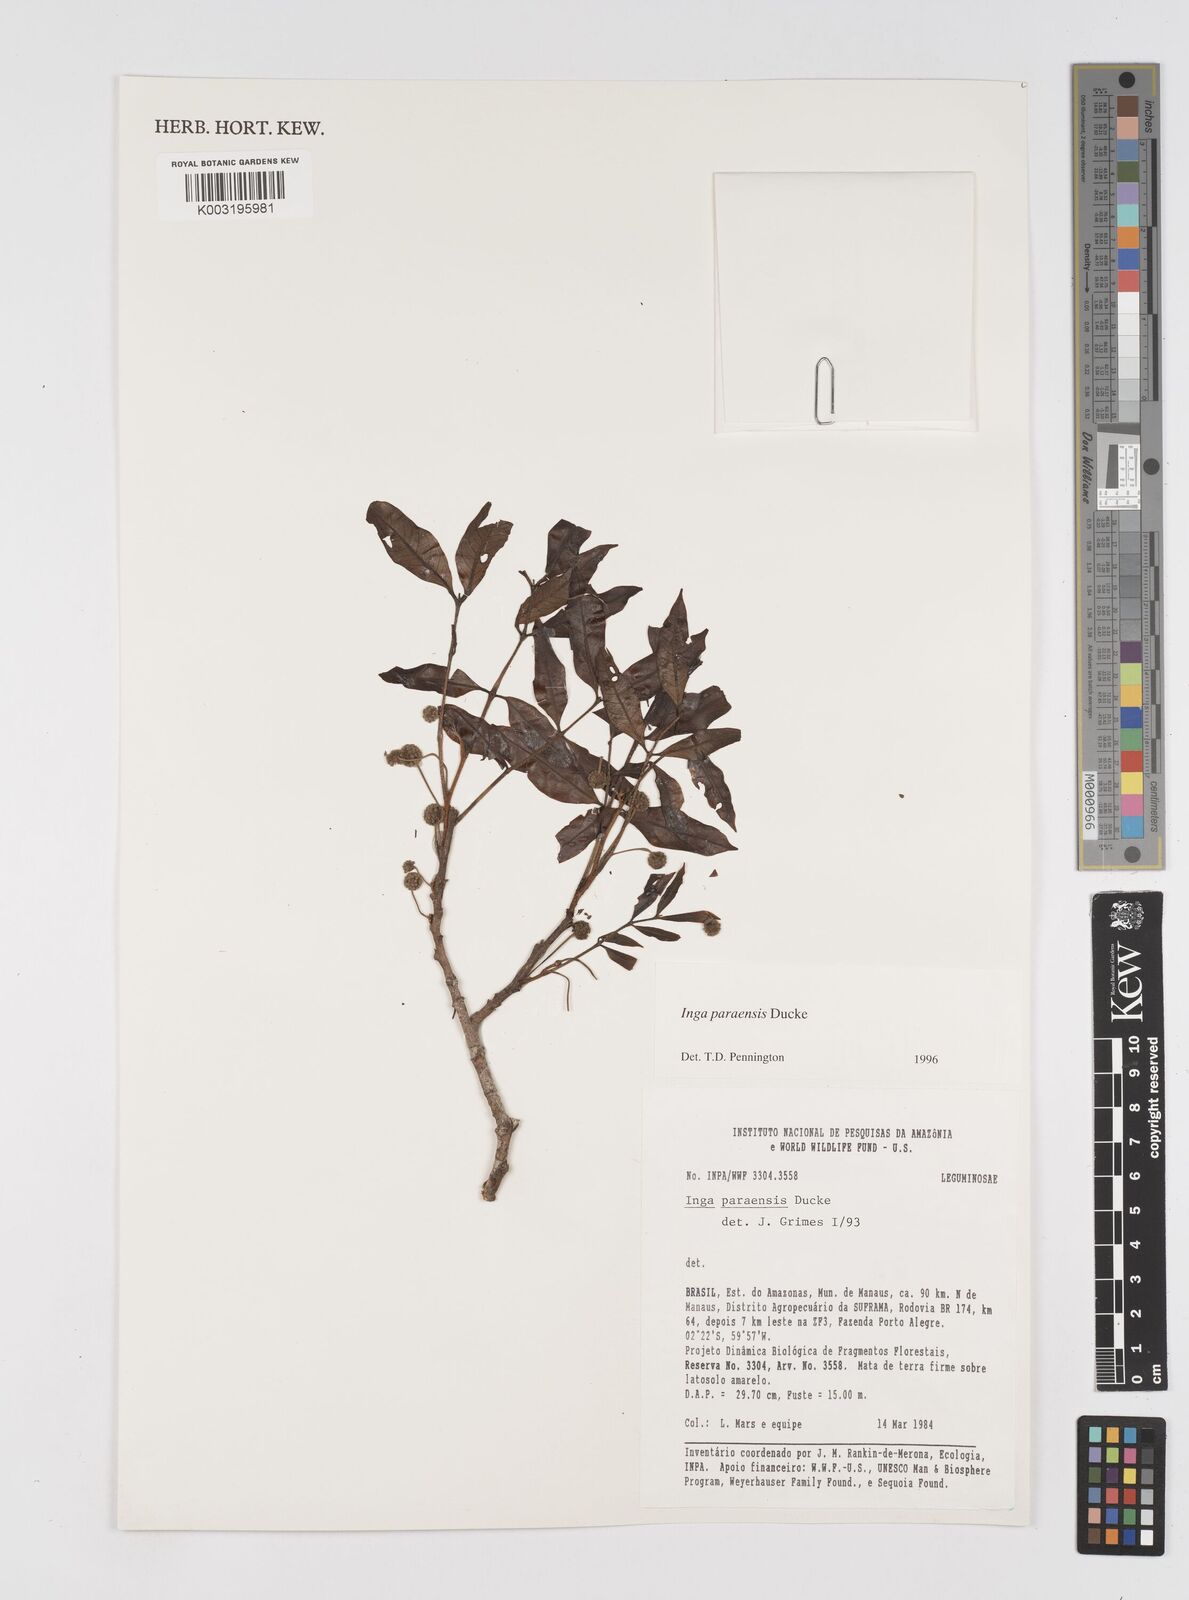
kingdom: Plantae
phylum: Tracheophyta
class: Magnoliopsida
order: Fabales
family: Fabaceae
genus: Inga
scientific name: Inga paraensis
